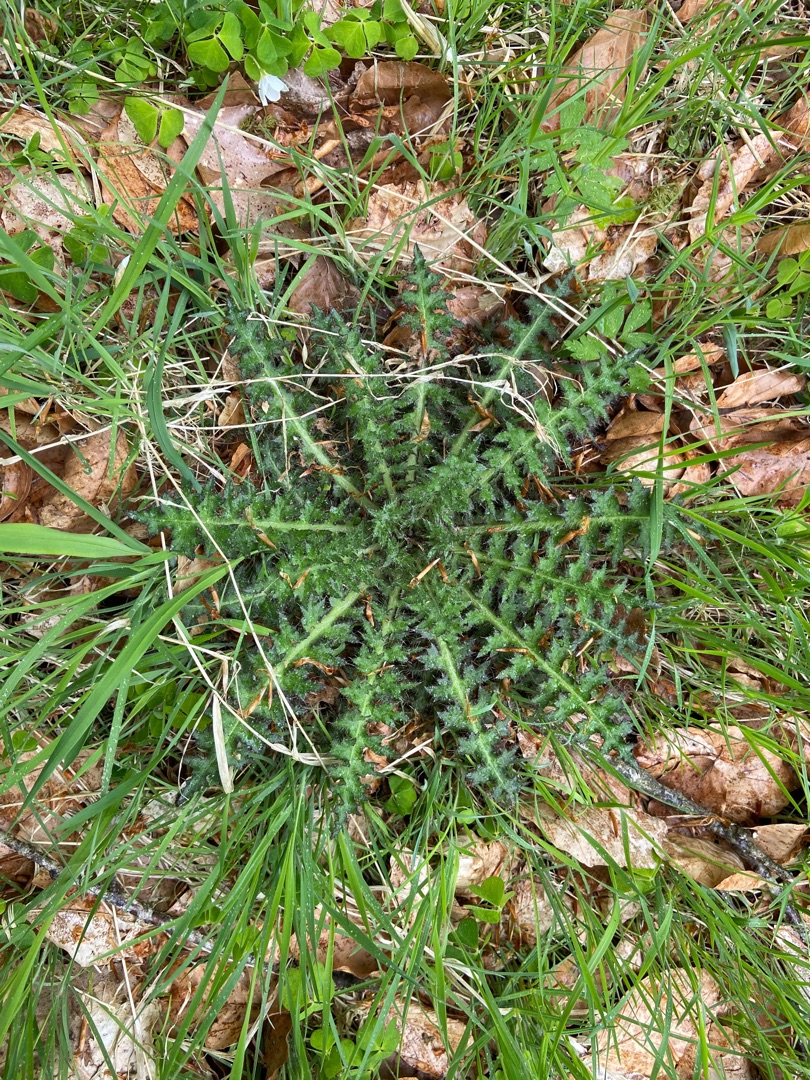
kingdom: Plantae
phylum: Tracheophyta
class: Magnoliopsida
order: Asterales
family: Asteraceae
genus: Cirsium
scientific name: Cirsium palustre
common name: Kær-tidsel
